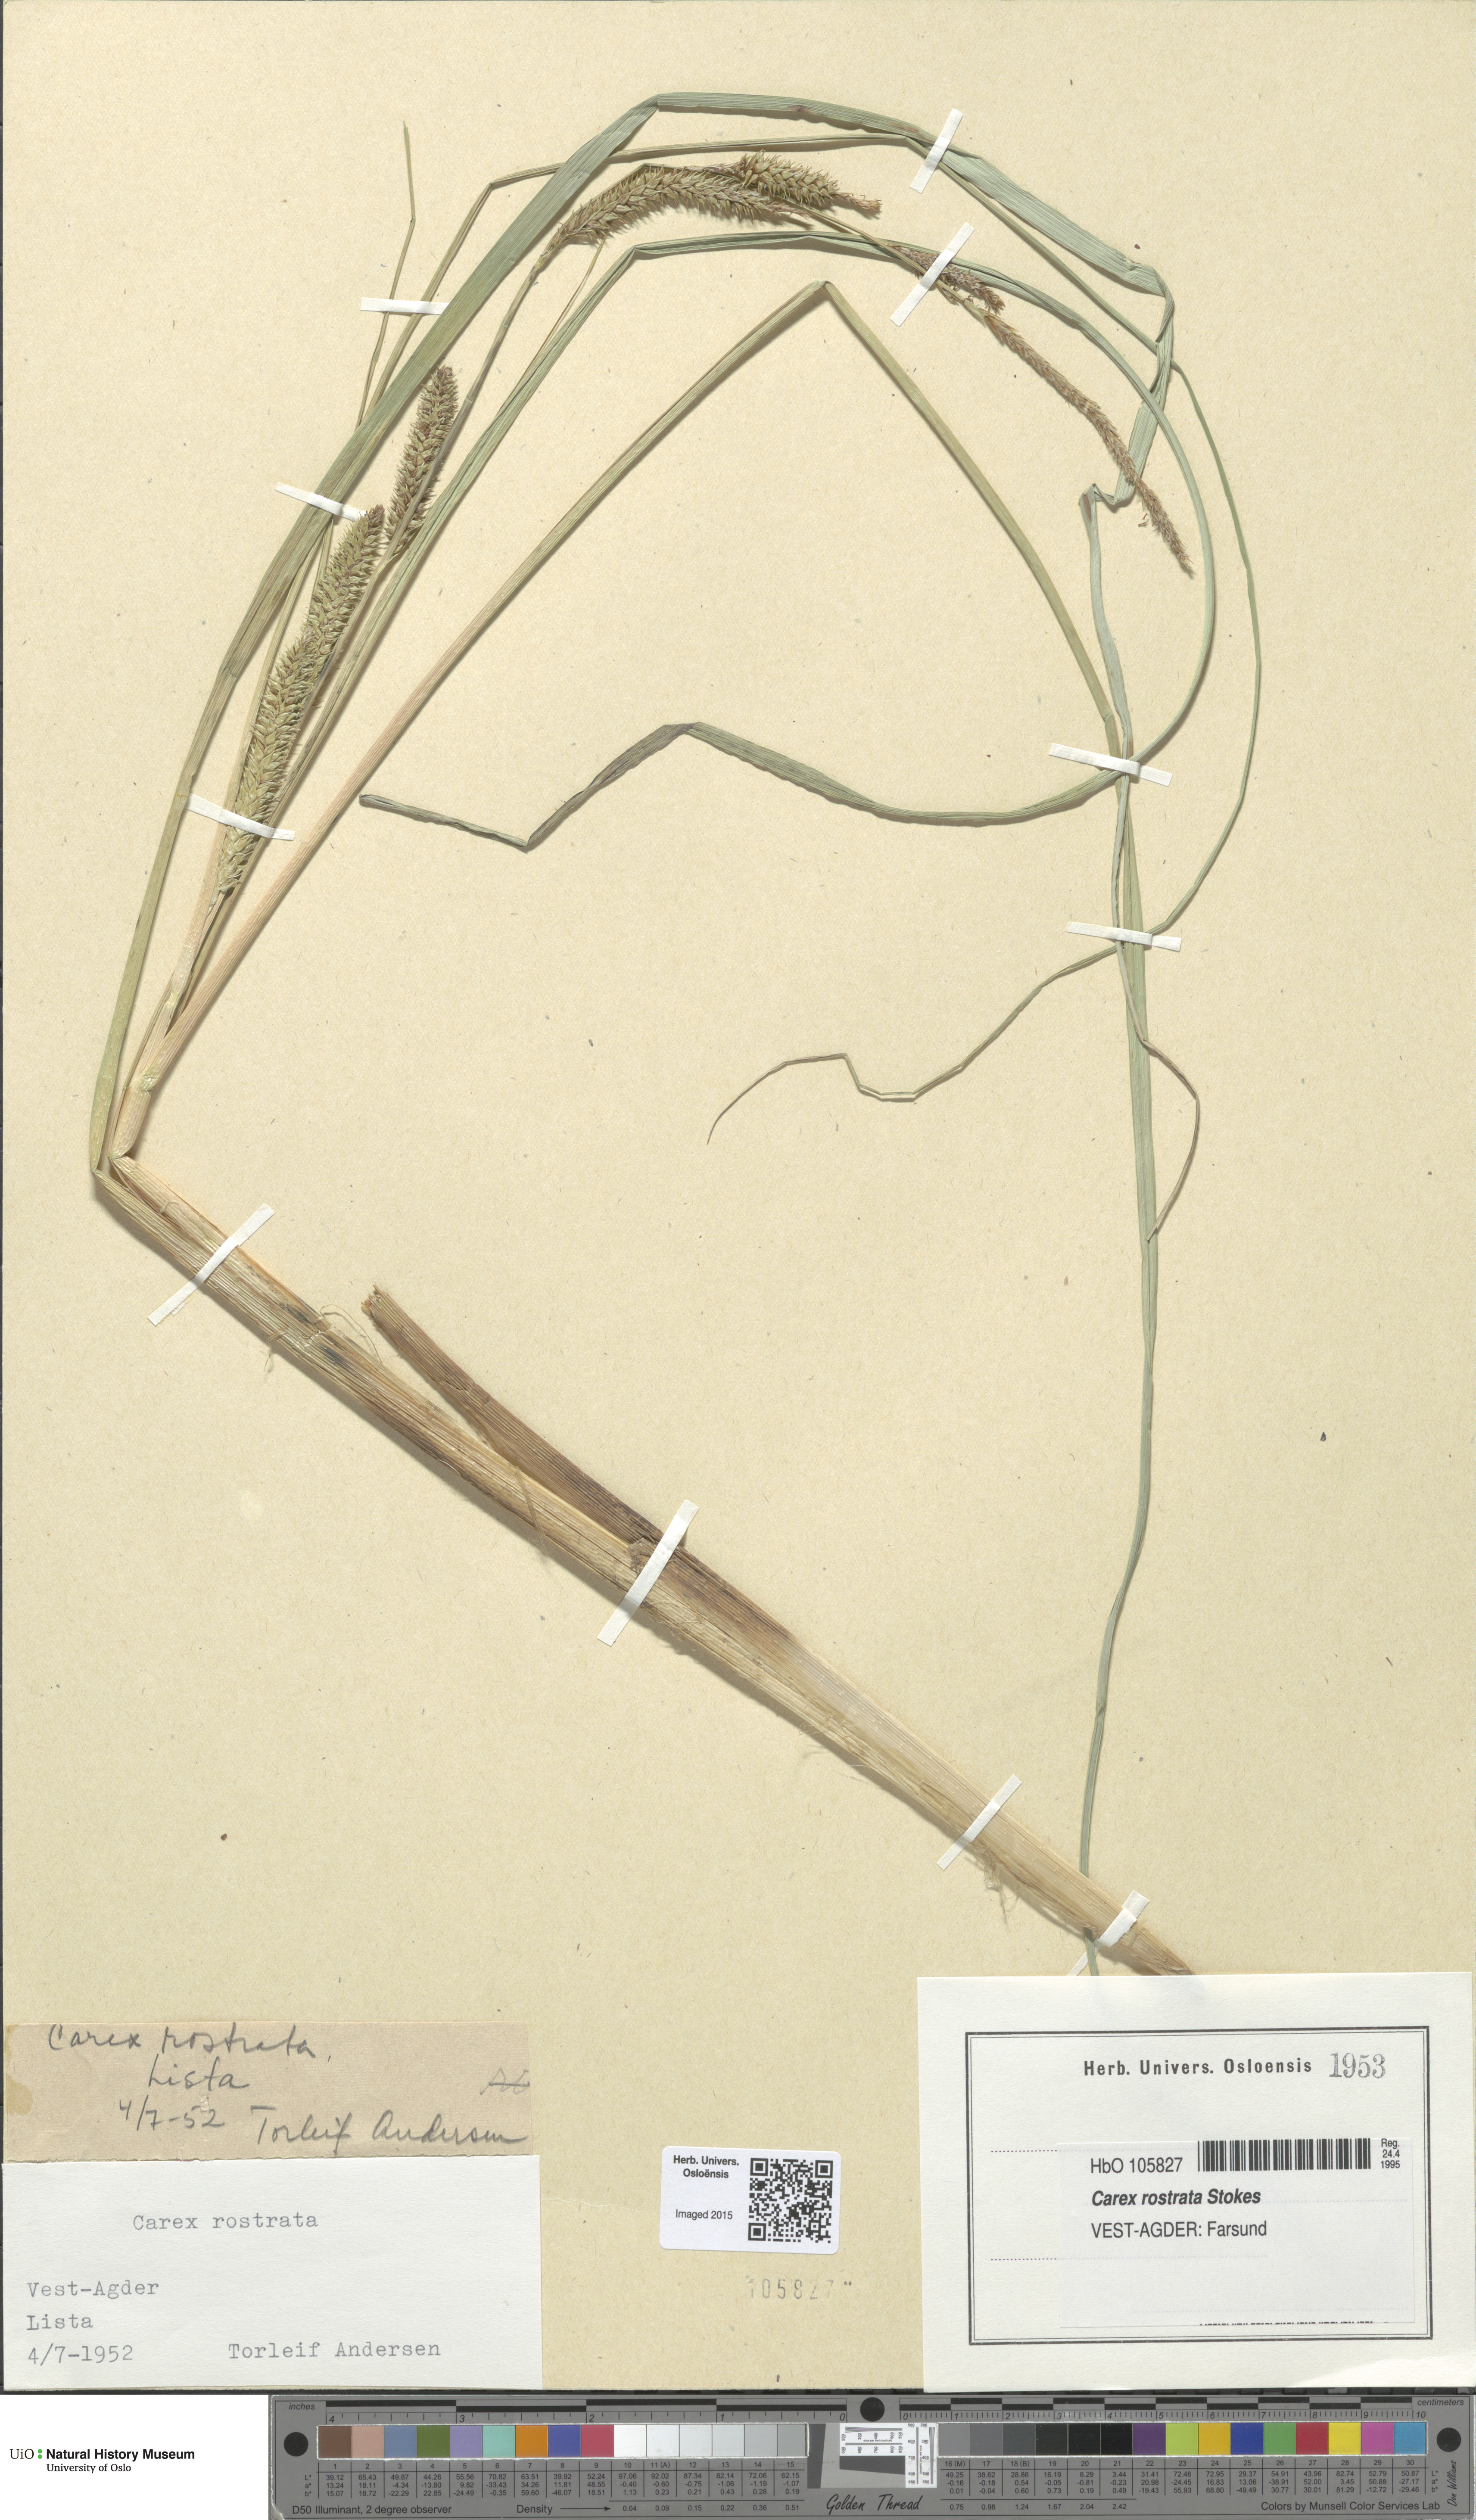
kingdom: Plantae
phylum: Tracheophyta
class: Liliopsida
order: Poales
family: Cyperaceae
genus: Carex
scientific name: Carex rostrata
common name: Bottle sedge
